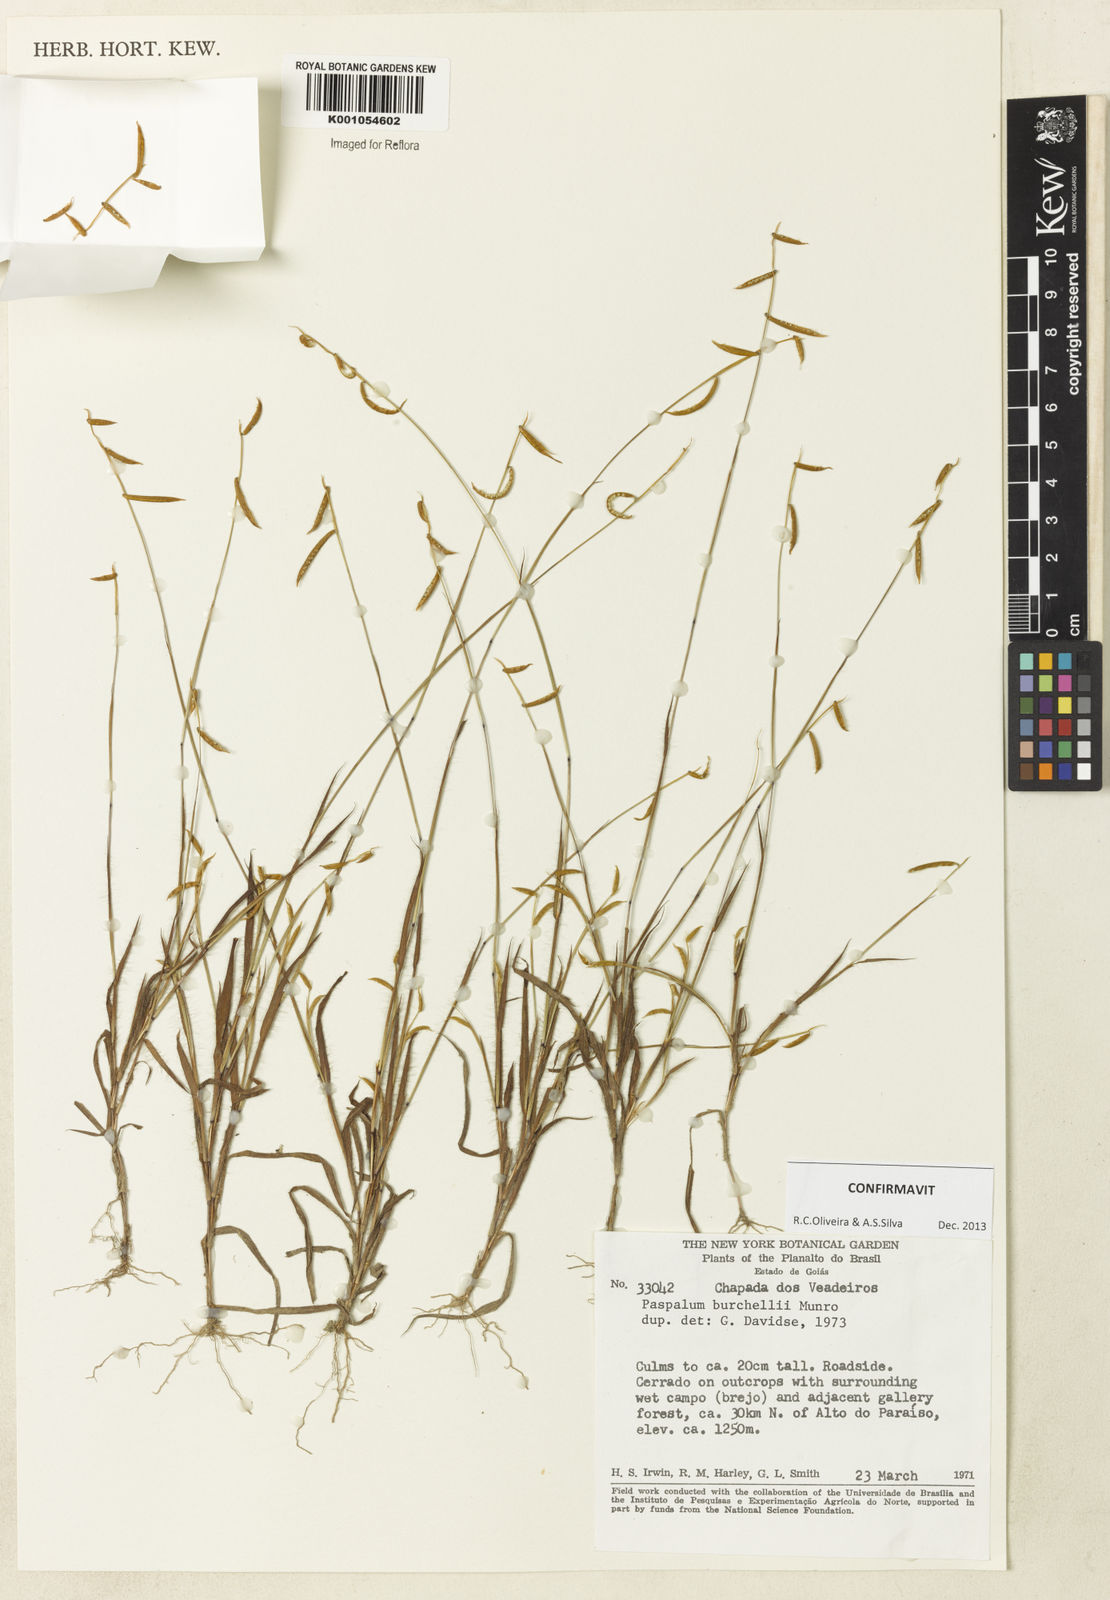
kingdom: Plantae
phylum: Tracheophyta
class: Liliopsida
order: Poales
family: Poaceae
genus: Paspalum
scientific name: Paspalum burchellii
